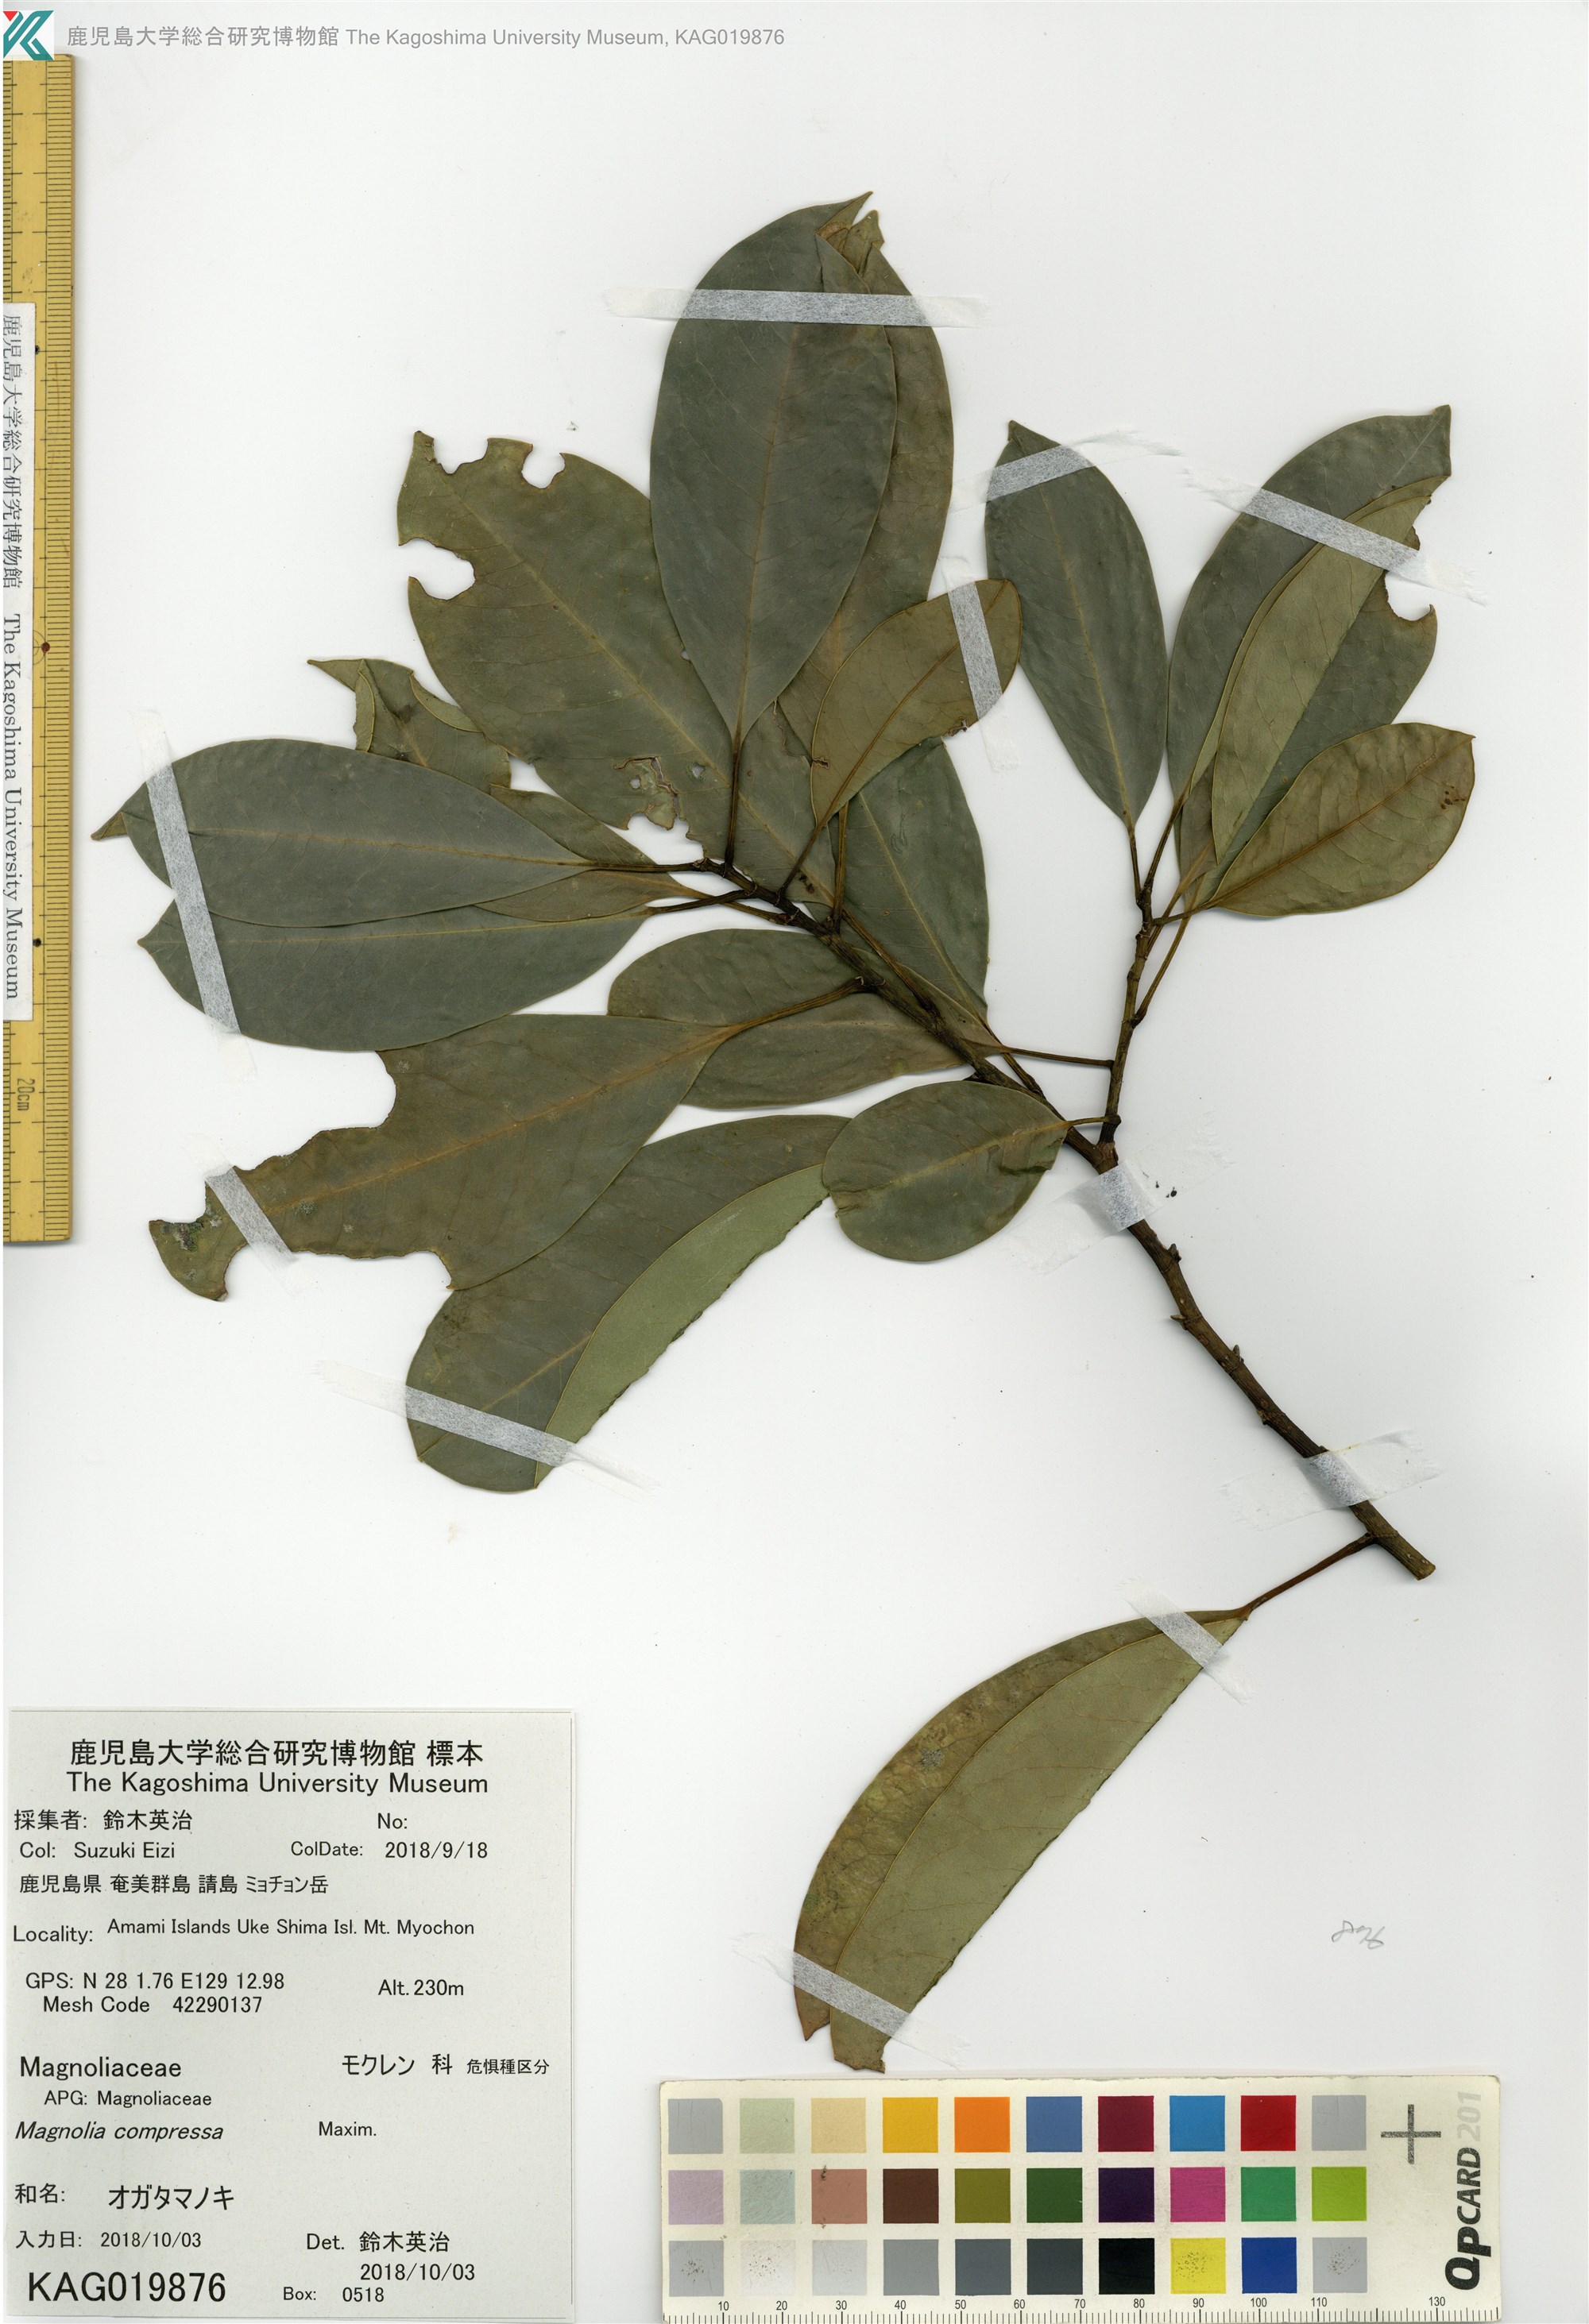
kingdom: Plantae
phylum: Tracheophyta
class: Magnoliopsida
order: Magnoliales
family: Magnoliaceae
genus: Magnolia
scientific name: Magnolia compressa
